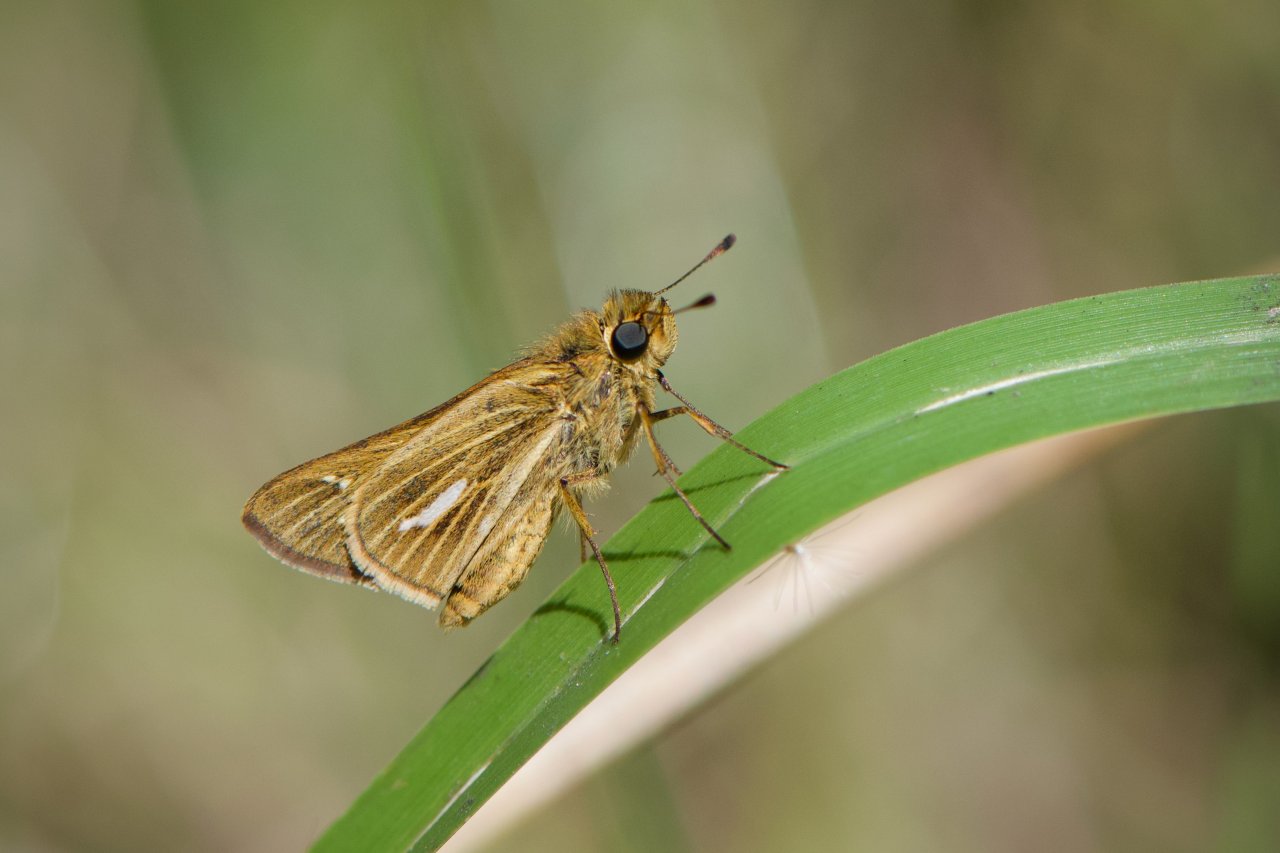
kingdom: Animalia
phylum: Arthropoda
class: Insecta
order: Lepidoptera
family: Hesperiidae
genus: Panoquina
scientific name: Panoquina panoquin
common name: Salt Marsh Skipper
